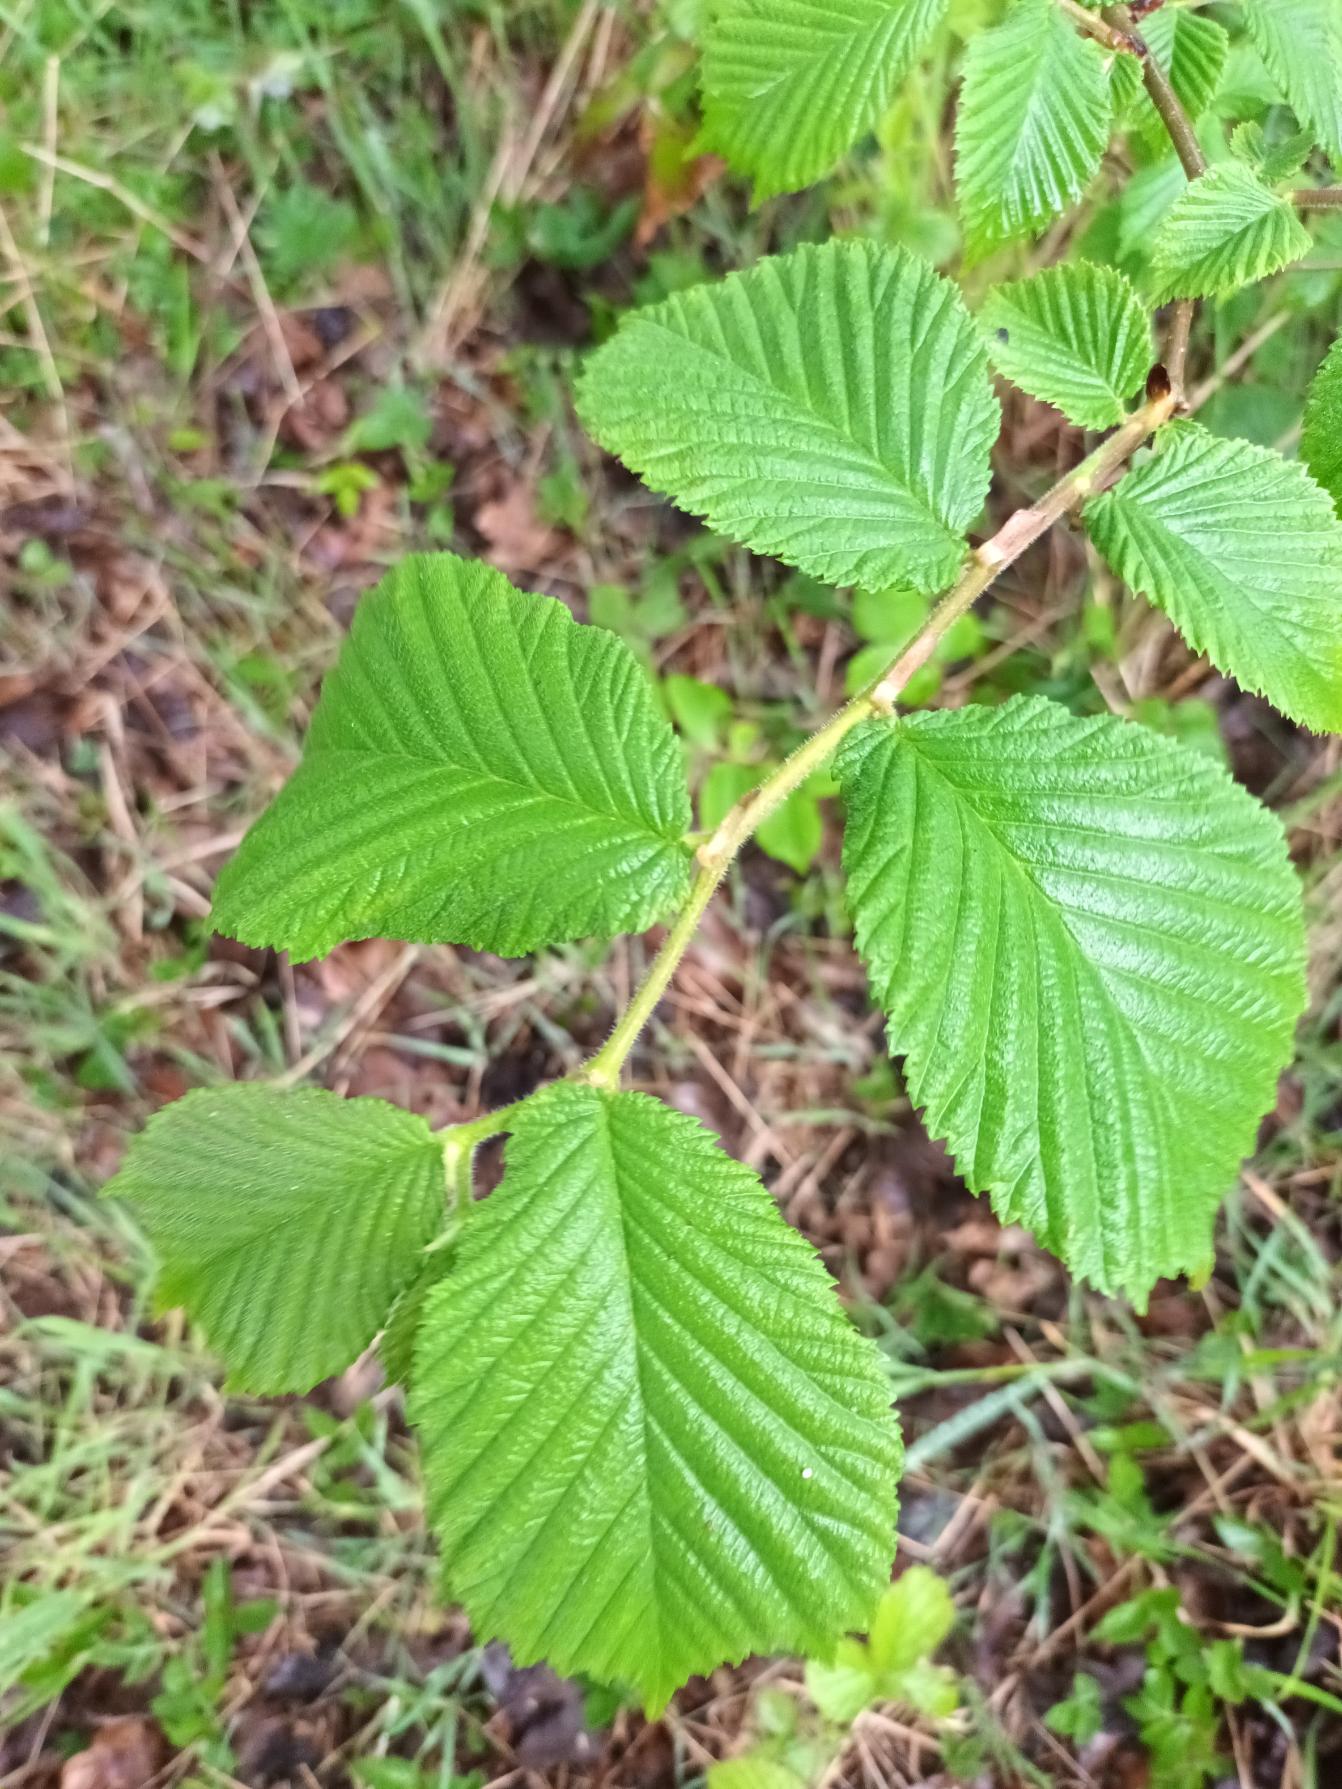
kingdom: Plantae
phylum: Tracheophyta
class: Magnoliopsida
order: Rosales
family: Ulmaceae
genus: Ulmus
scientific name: Ulmus glabra
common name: Skov-elm/storbladet elm
